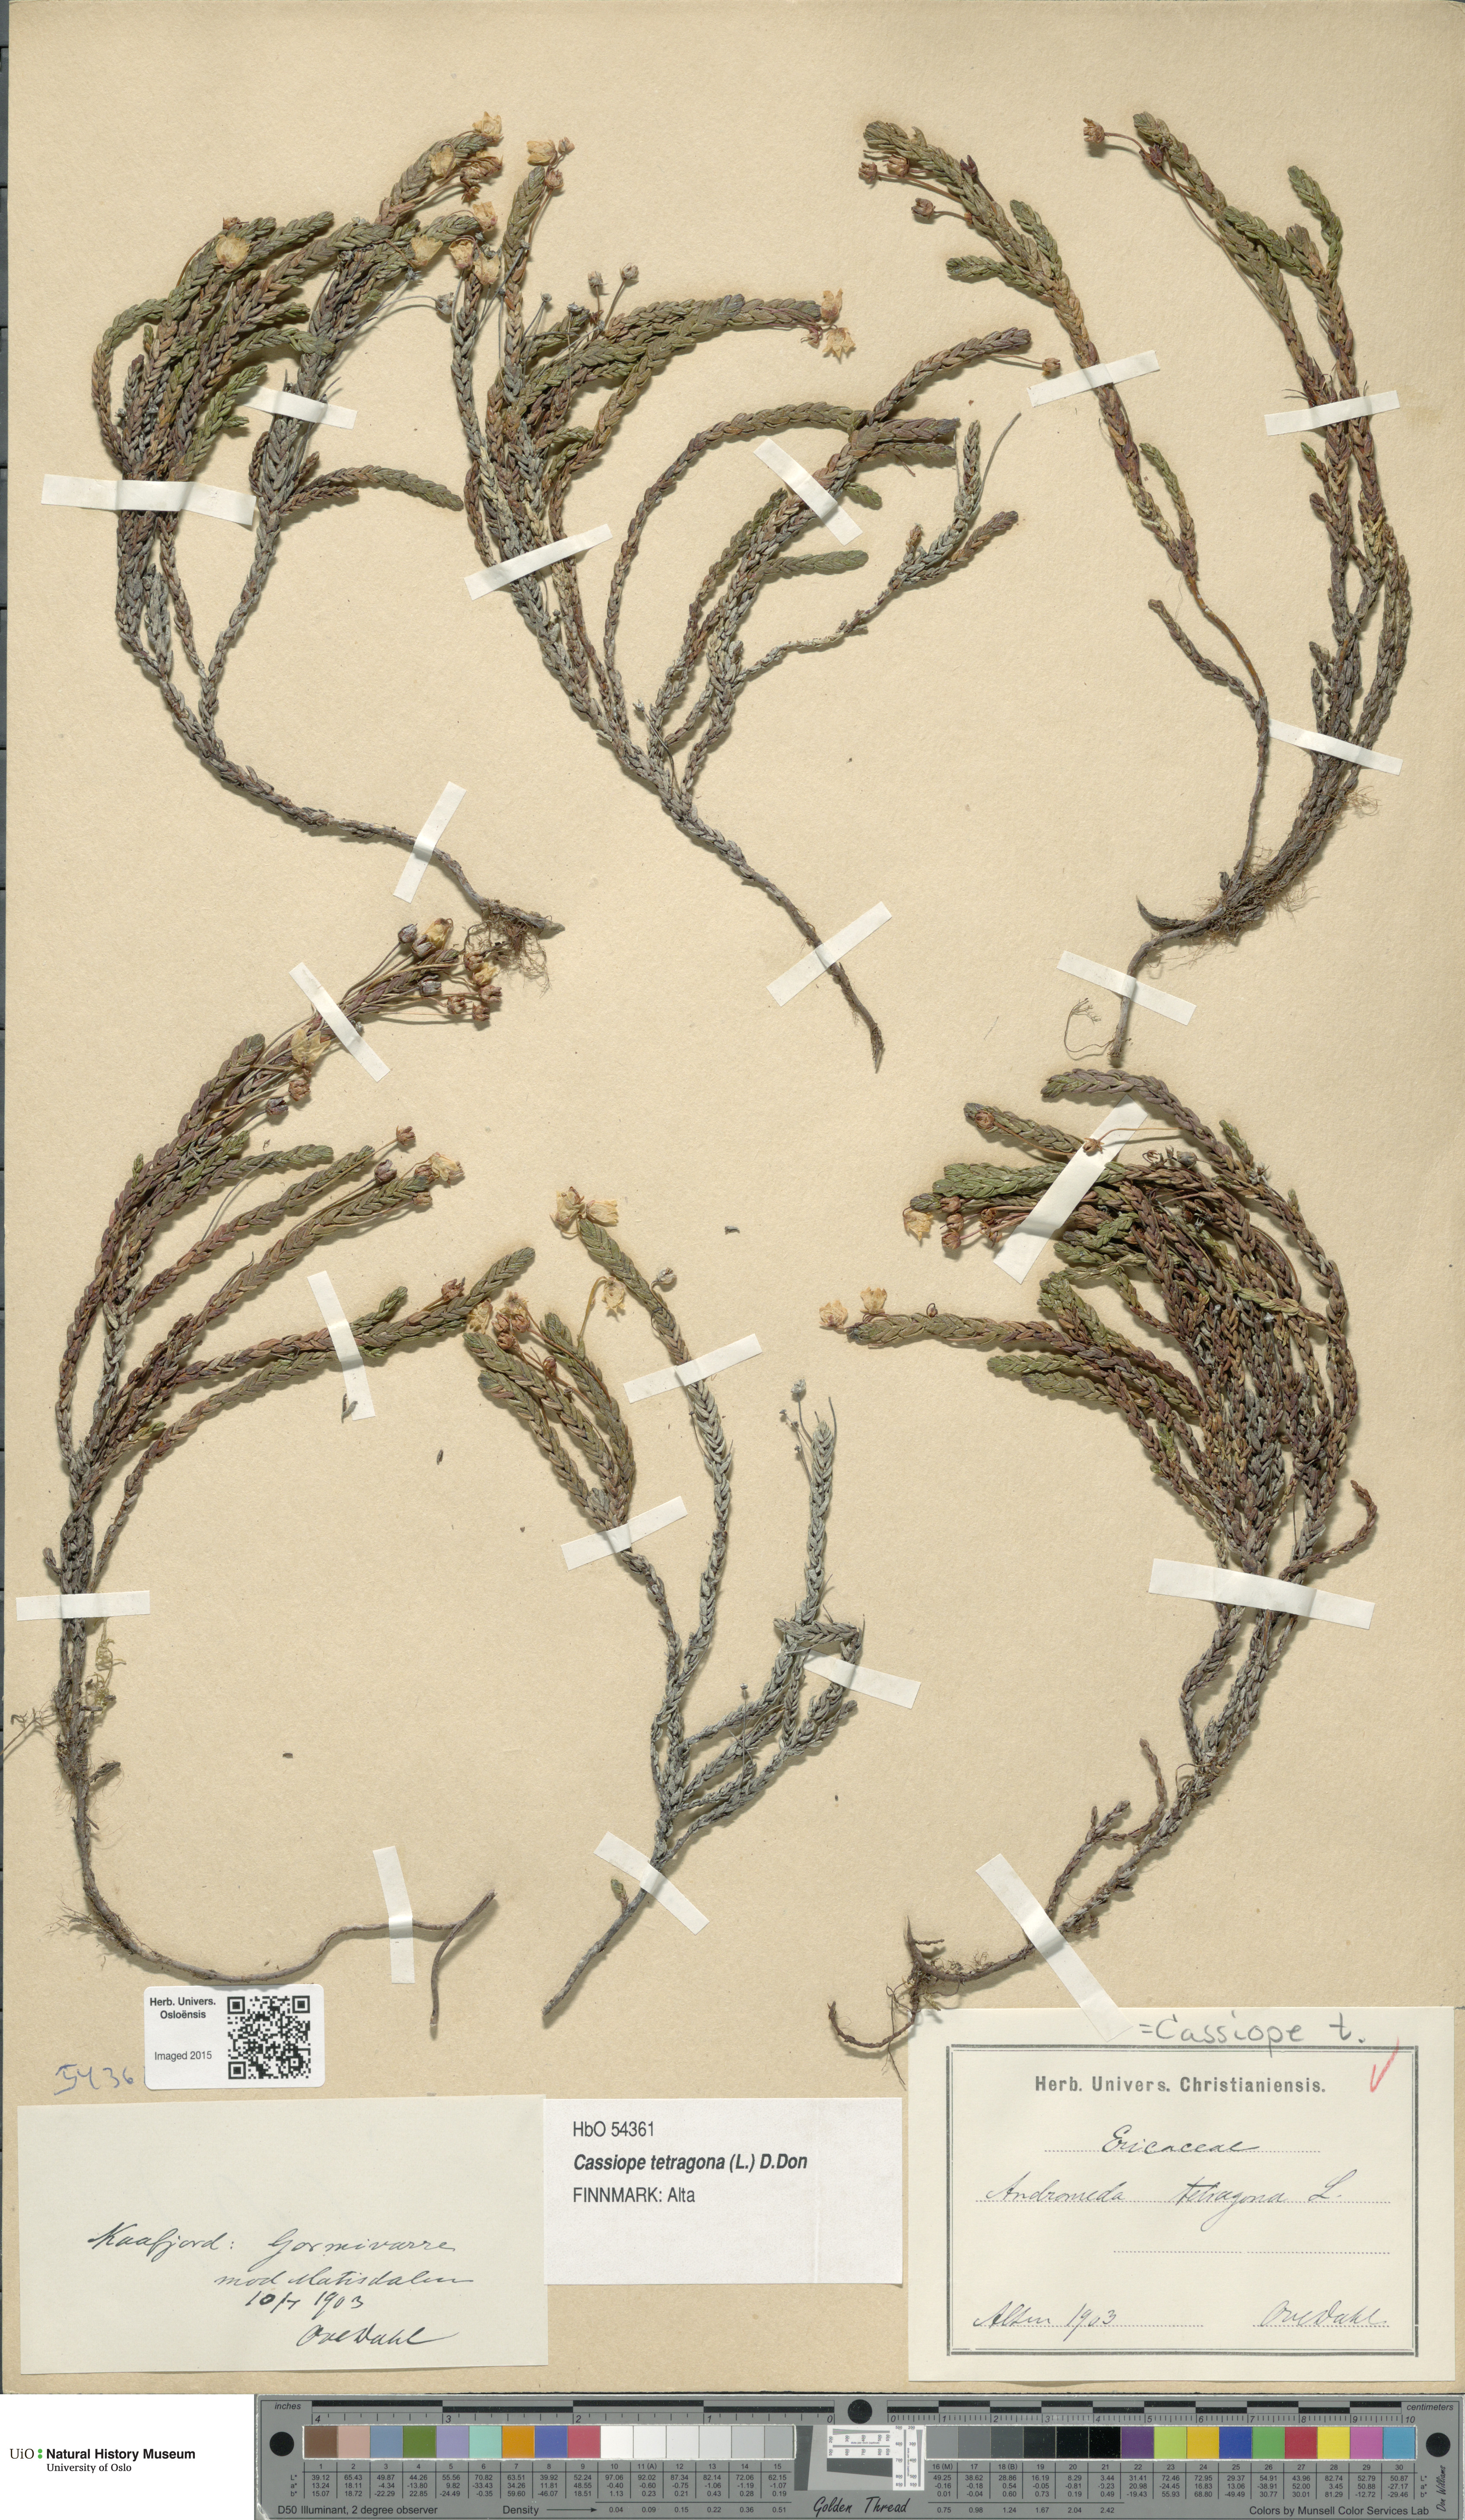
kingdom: Plantae
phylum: Tracheophyta
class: Magnoliopsida
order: Ericales
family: Ericaceae
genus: Cassiope
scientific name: Cassiope tetragona
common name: Arctic bell heather
